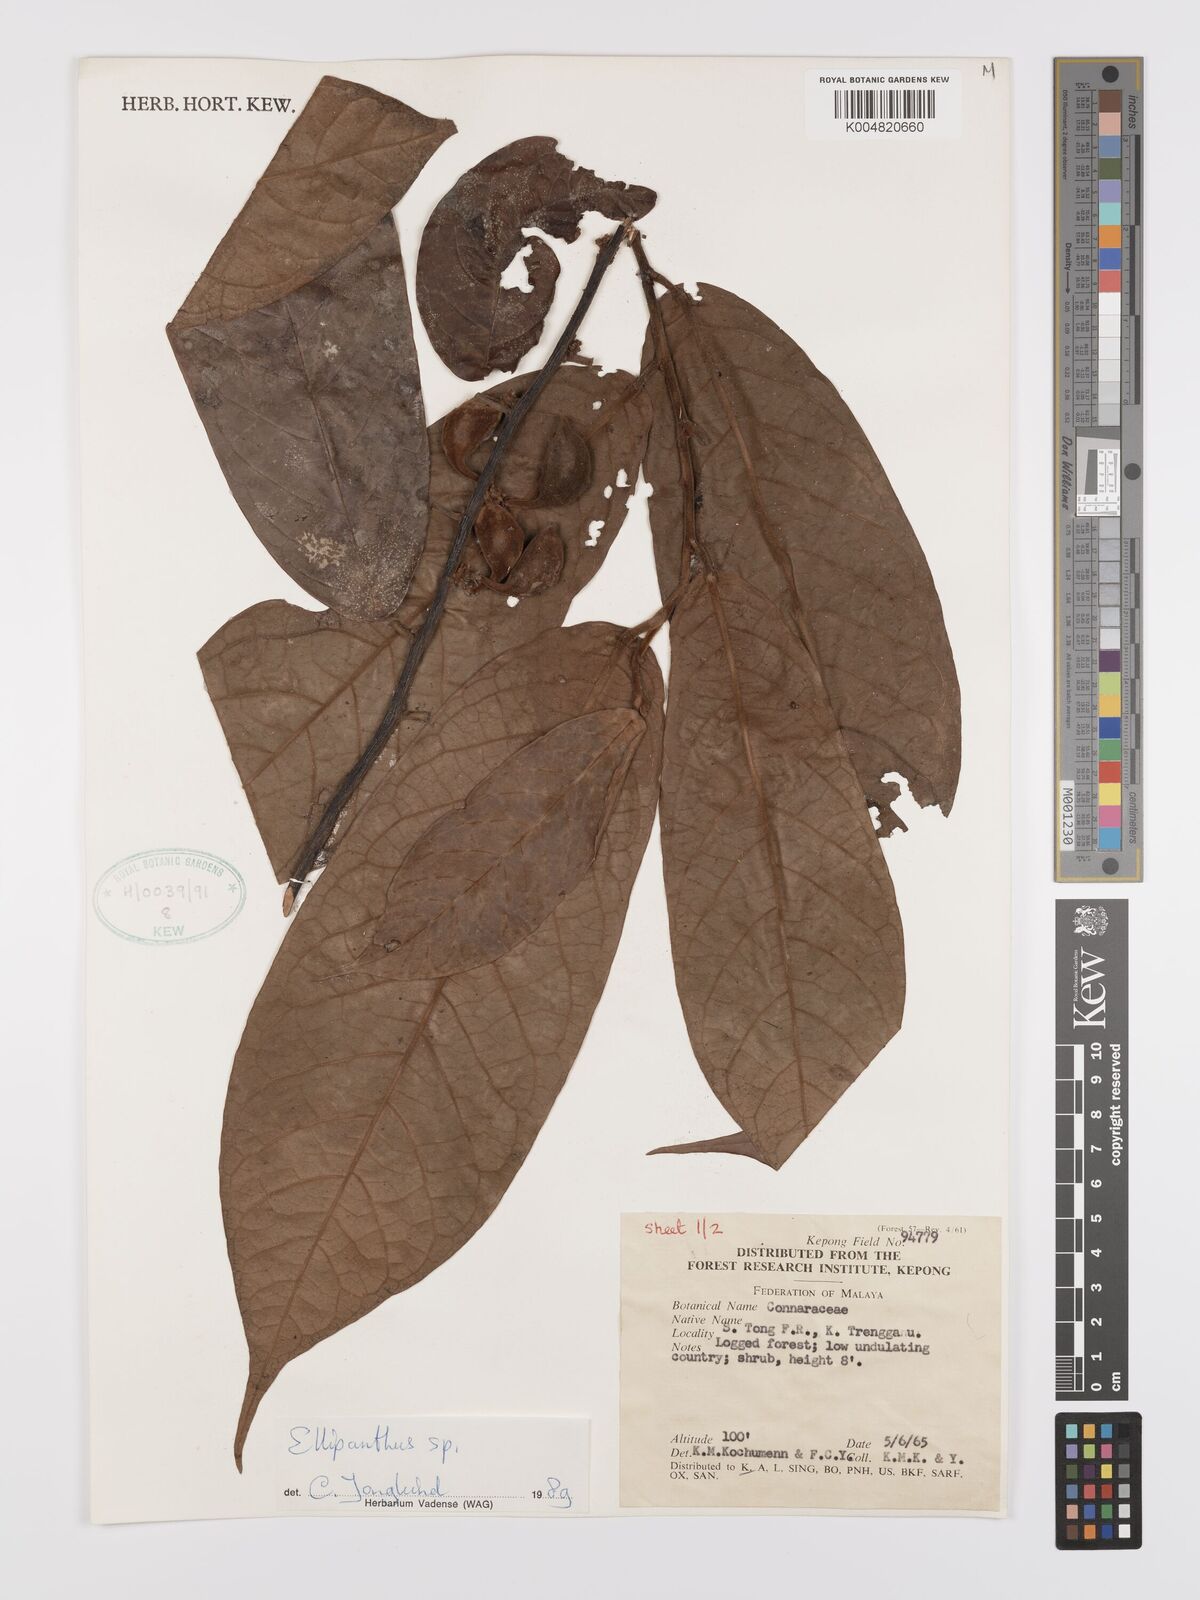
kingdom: Plantae
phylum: Tracheophyta
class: Magnoliopsida
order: Oxalidales
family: Connaraceae
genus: Ellipanthus
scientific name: Ellipanthus
